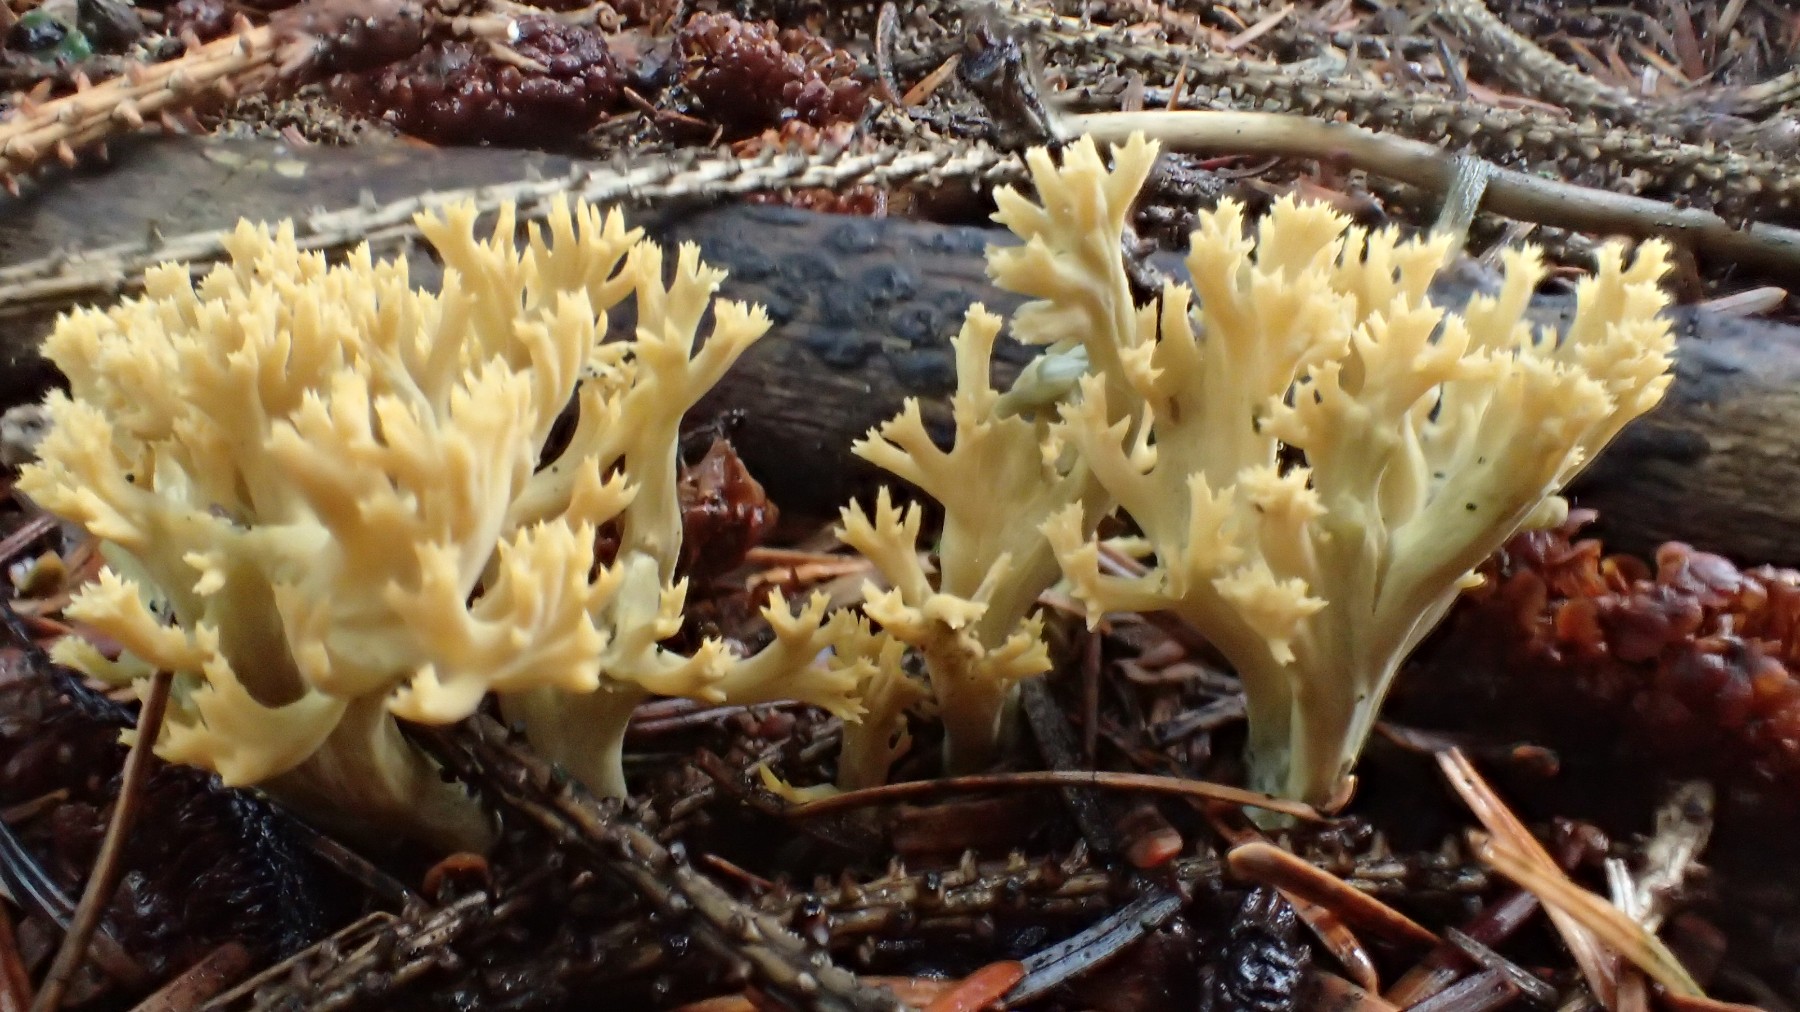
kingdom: Fungi
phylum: Basidiomycota
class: Agaricomycetes
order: Gomphales
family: Gomphaceae
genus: Phaeoclavulina
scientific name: Phaeoclavulina eumorpha
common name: gran-koralsvamp
